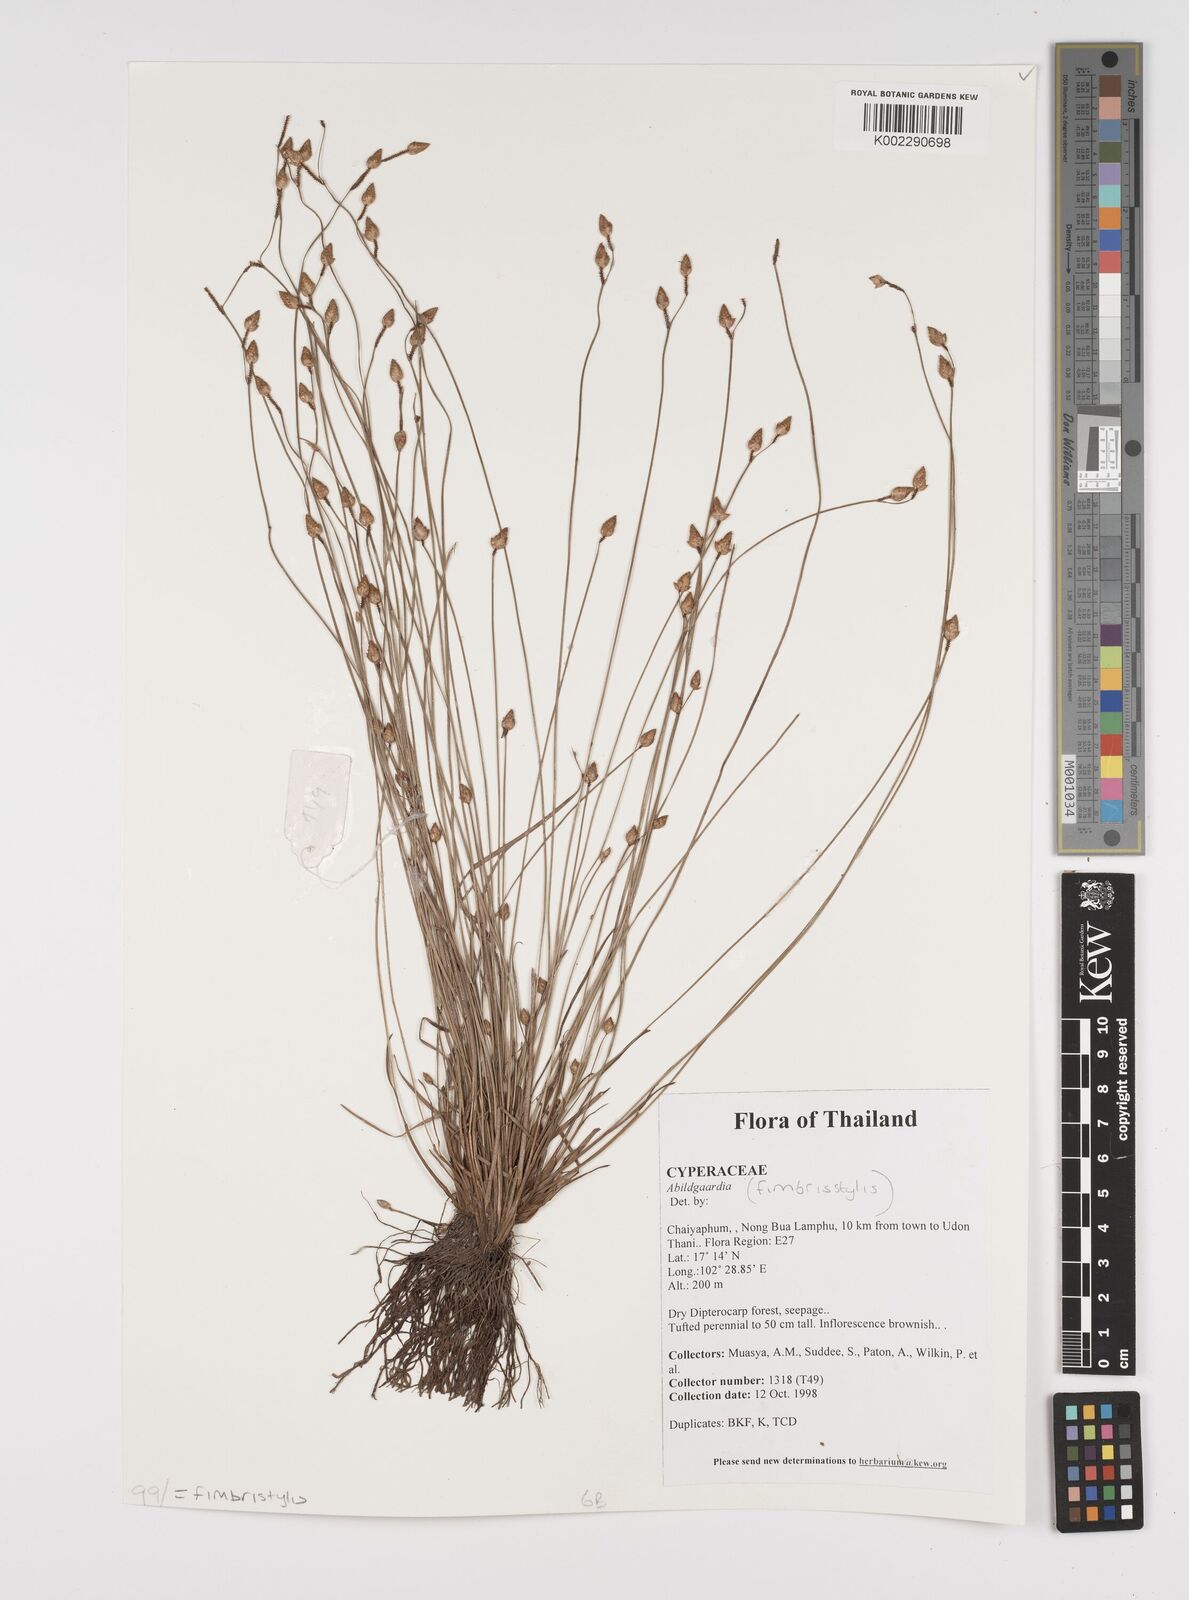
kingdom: Plantae
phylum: Tracheophyta
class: Liliopsida
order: Poales
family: Cyperaceae
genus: Fimbristylis
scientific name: Fimbristylis
